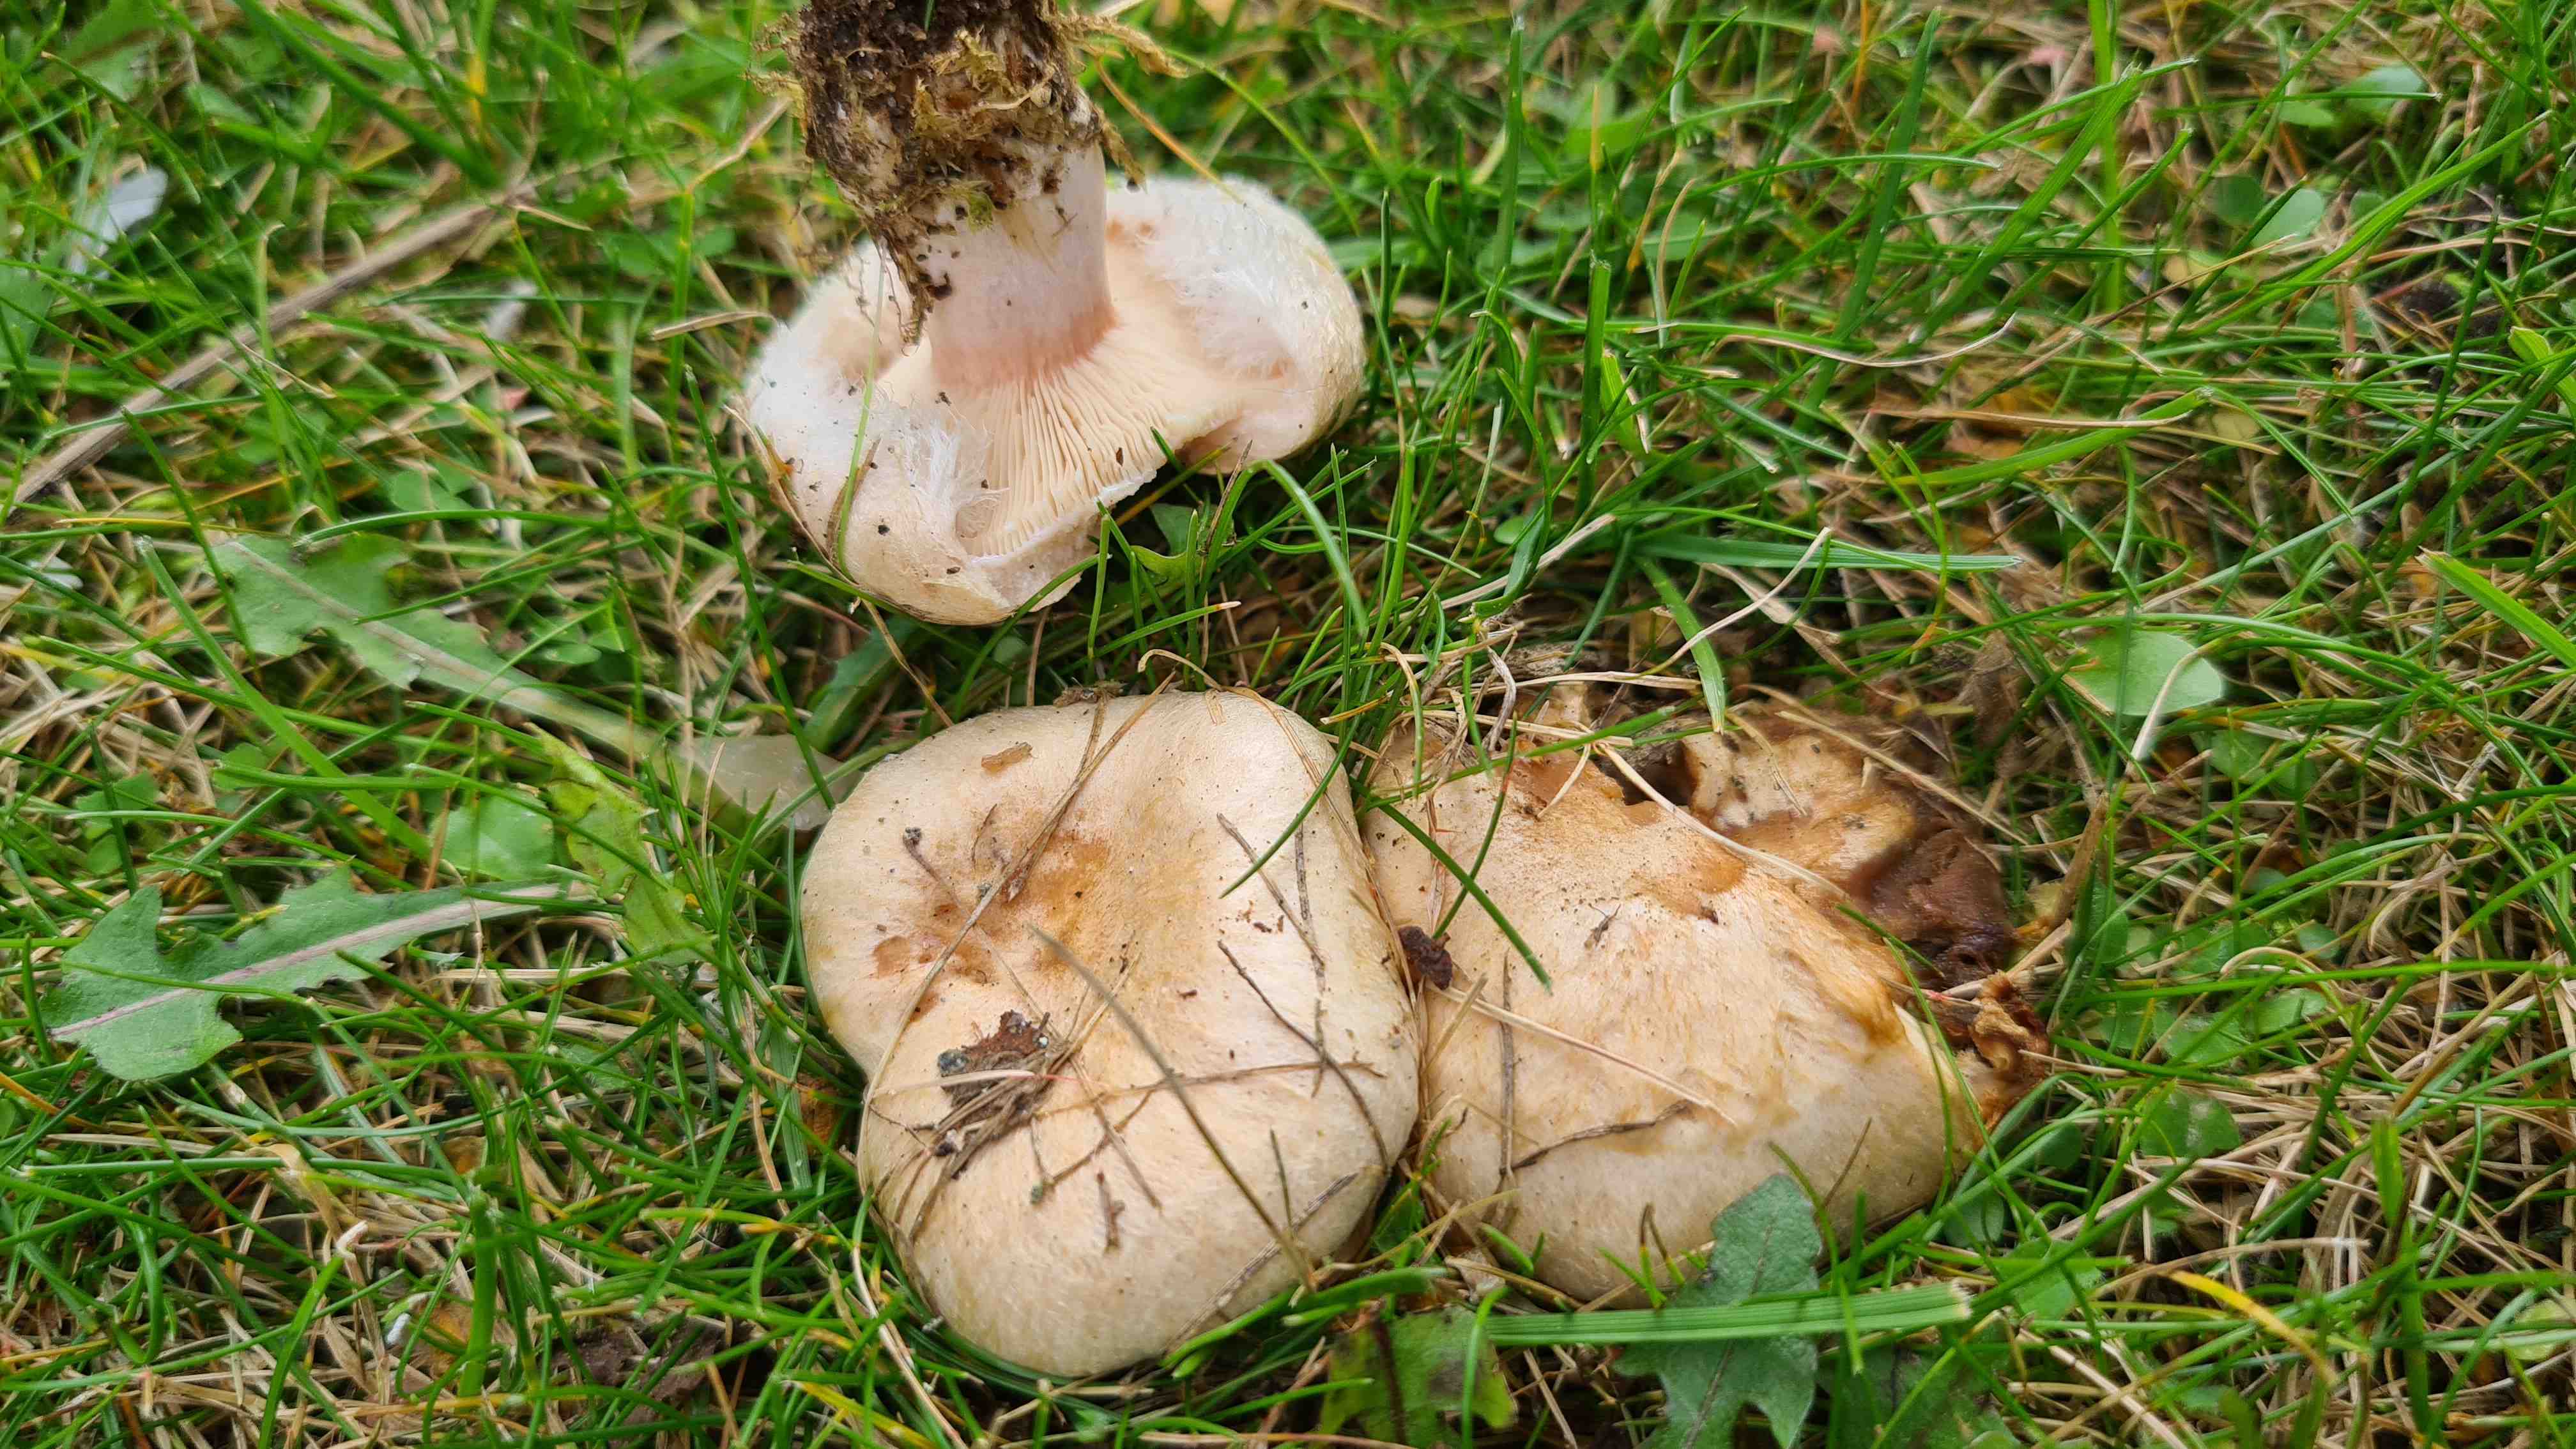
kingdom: Fungi
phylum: Basidiomycota
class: Agaricomycetes
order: Russulales
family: Russulaceae
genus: Lactarius
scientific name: Lactarius pubescens
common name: dunet mælkehat
